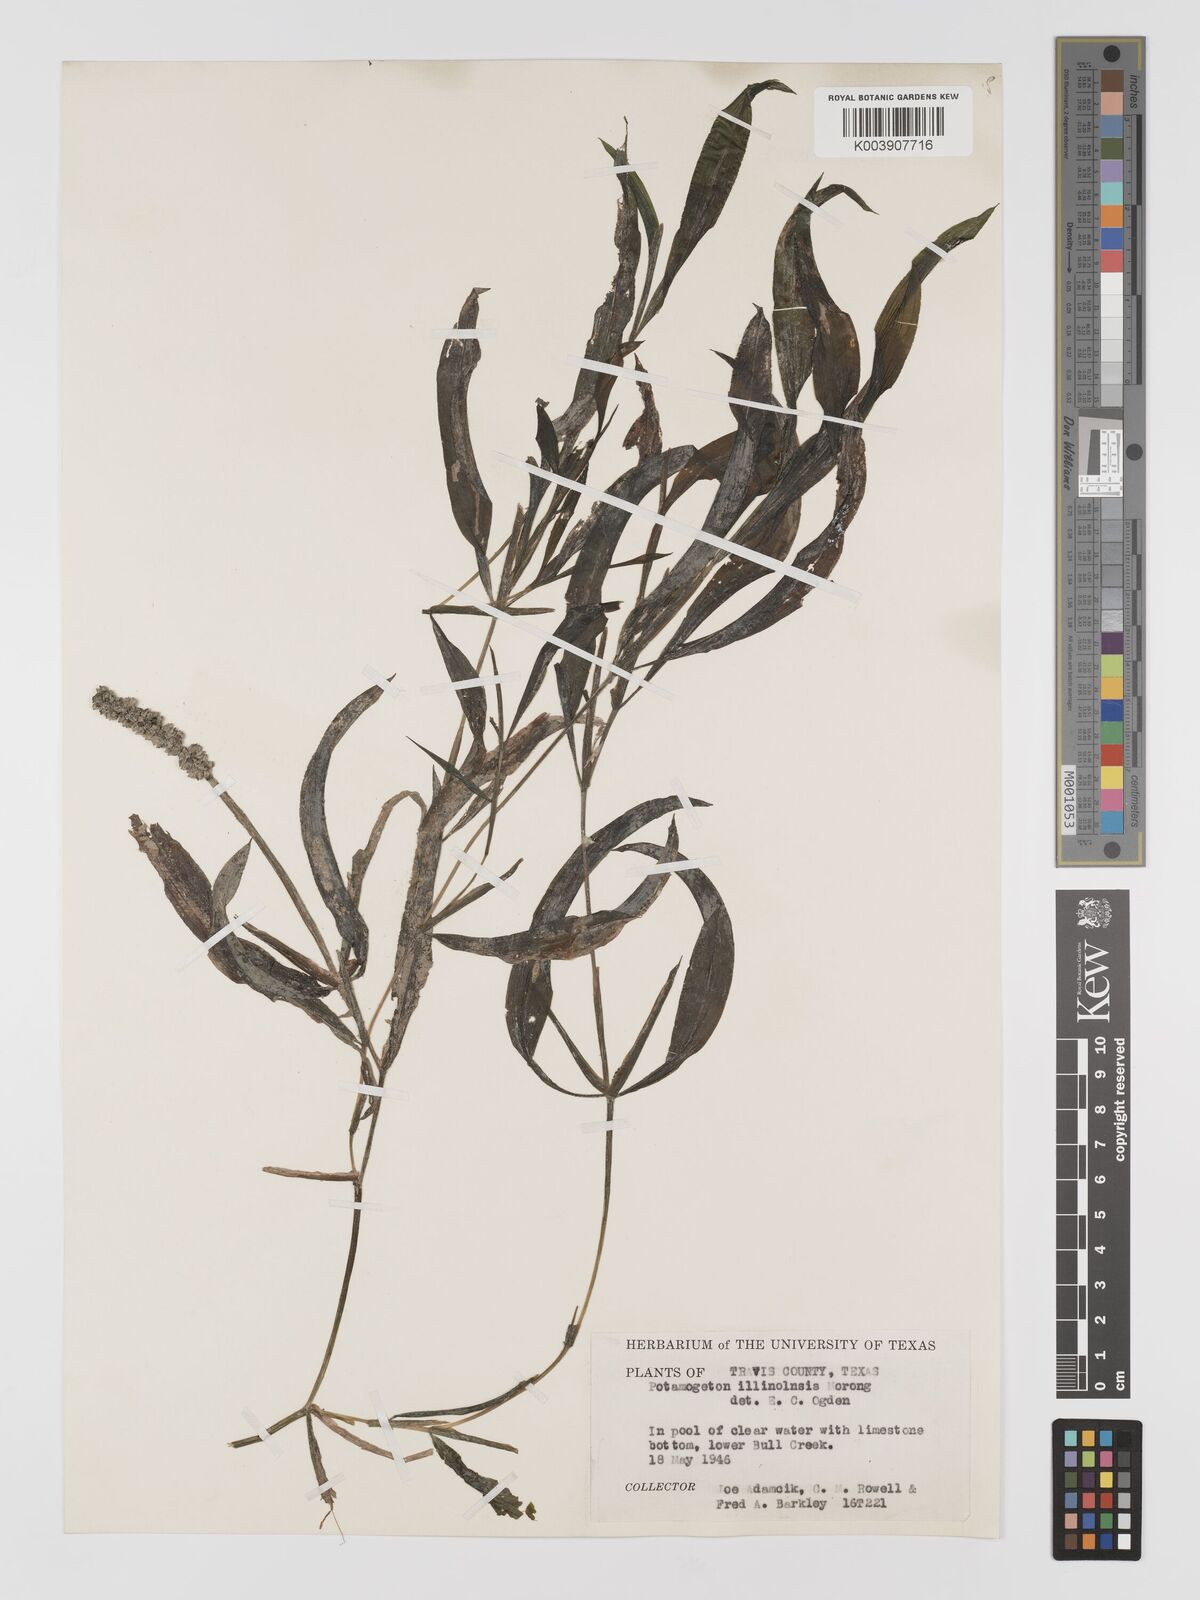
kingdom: Plantae
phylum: Tracheophyta
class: Liliopsida
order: Alismatales
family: Potamogetonaceae
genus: Potamogeton
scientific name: Potamogeton illinoensis
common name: Illinois pondweed
